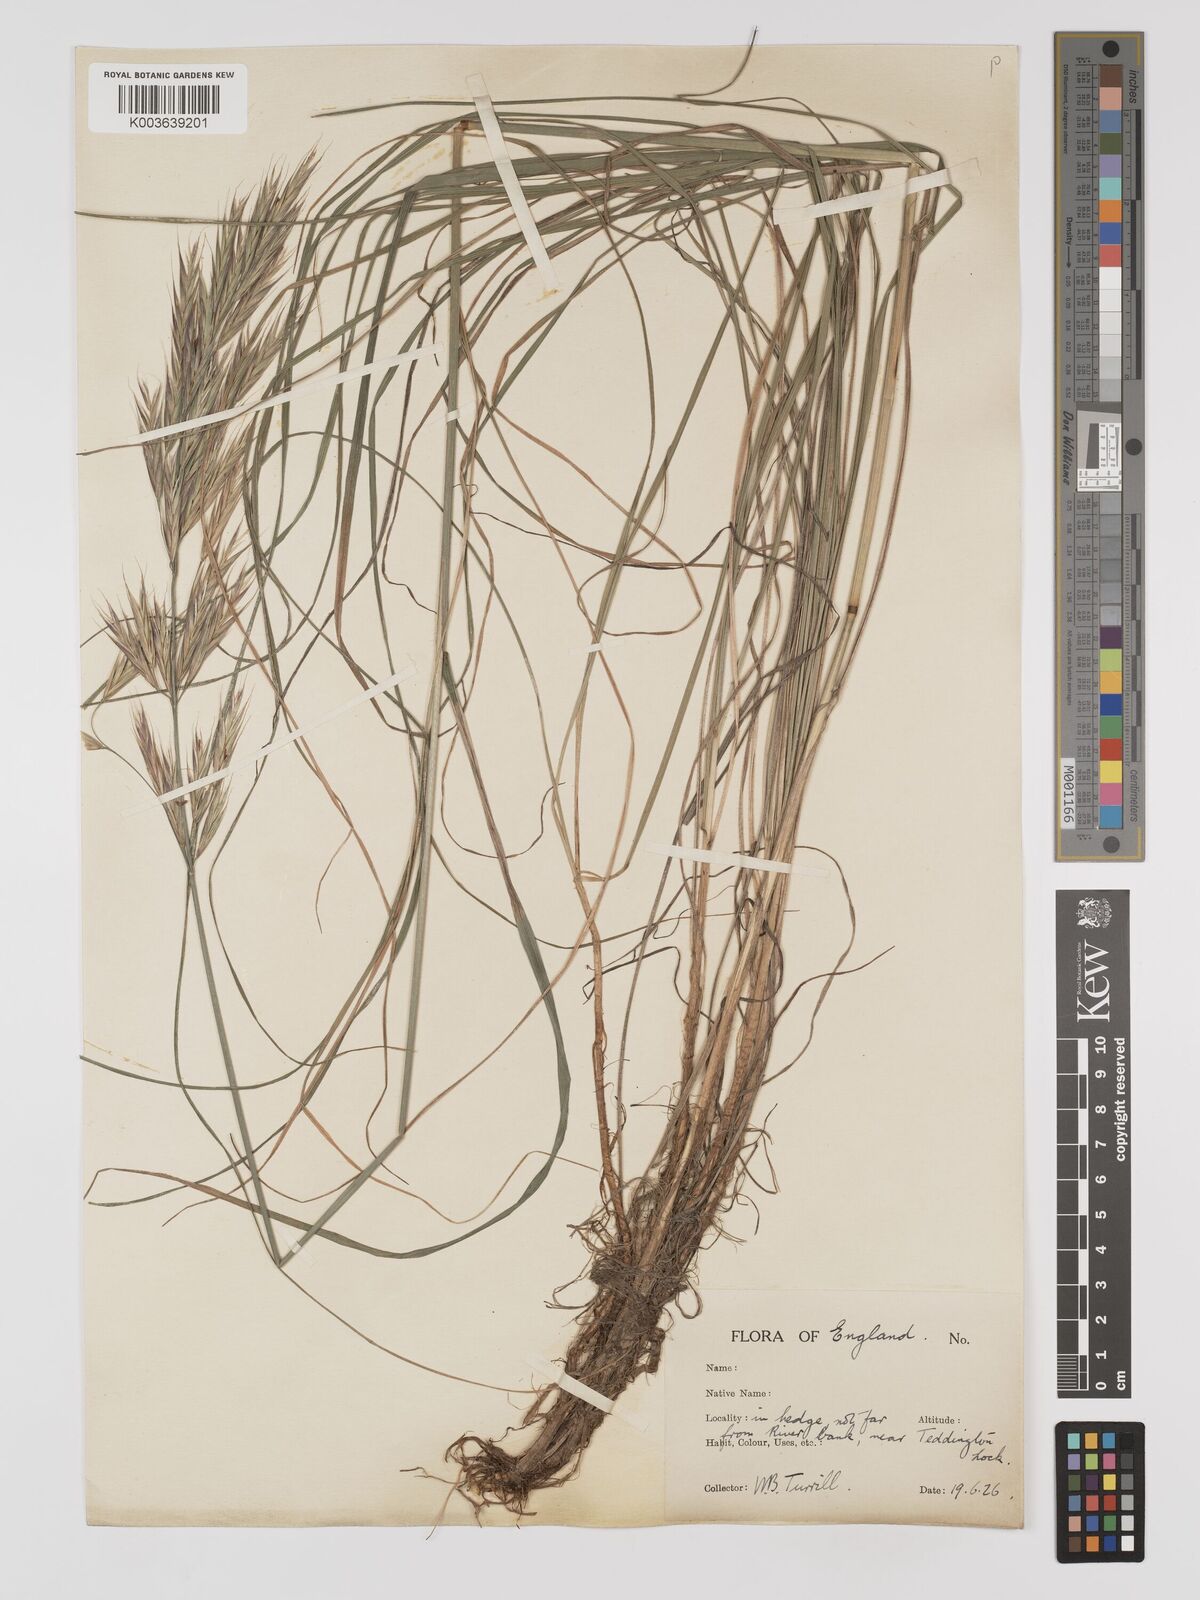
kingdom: Plantae
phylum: Tracheophyta
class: Liliopsida
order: Poales
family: Poaceae
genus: Bromus
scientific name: Bromus erectus
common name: Erect brome
